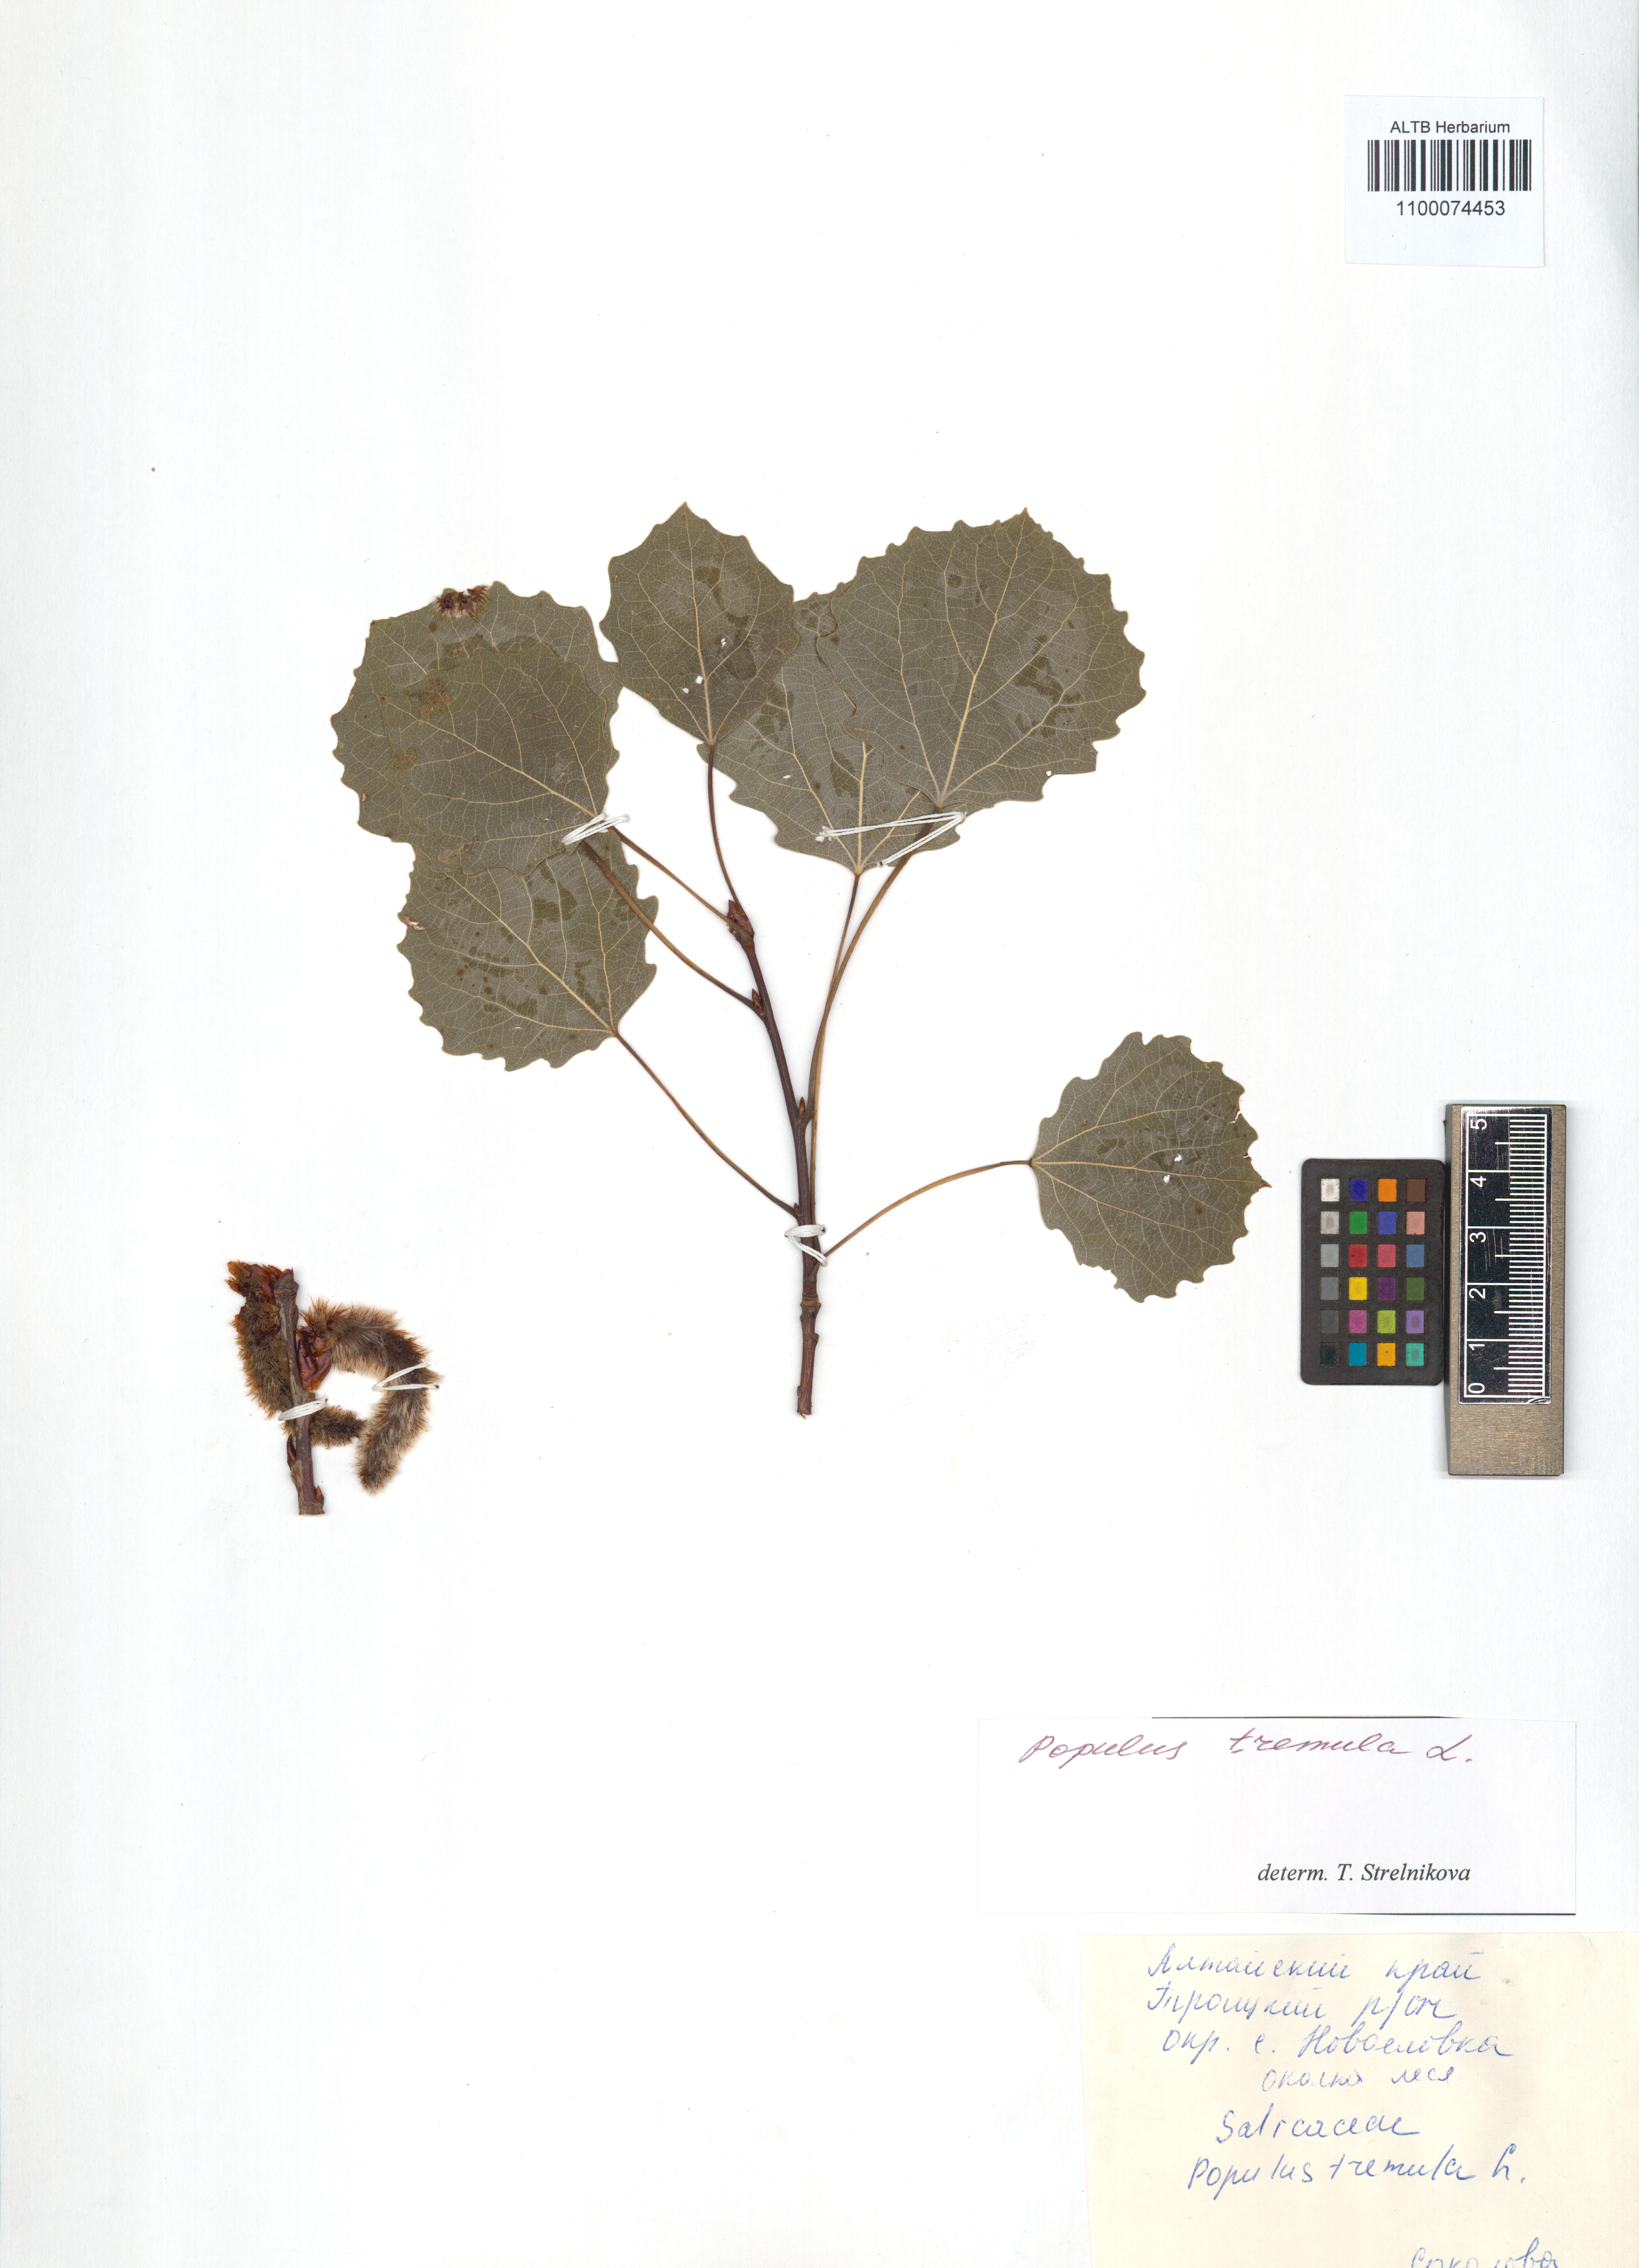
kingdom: Plantae
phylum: Tracheophyta
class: Magnoliopsida
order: Malpighiales
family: Salicaceae
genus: Populus
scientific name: Populus tremula
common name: European aspen
